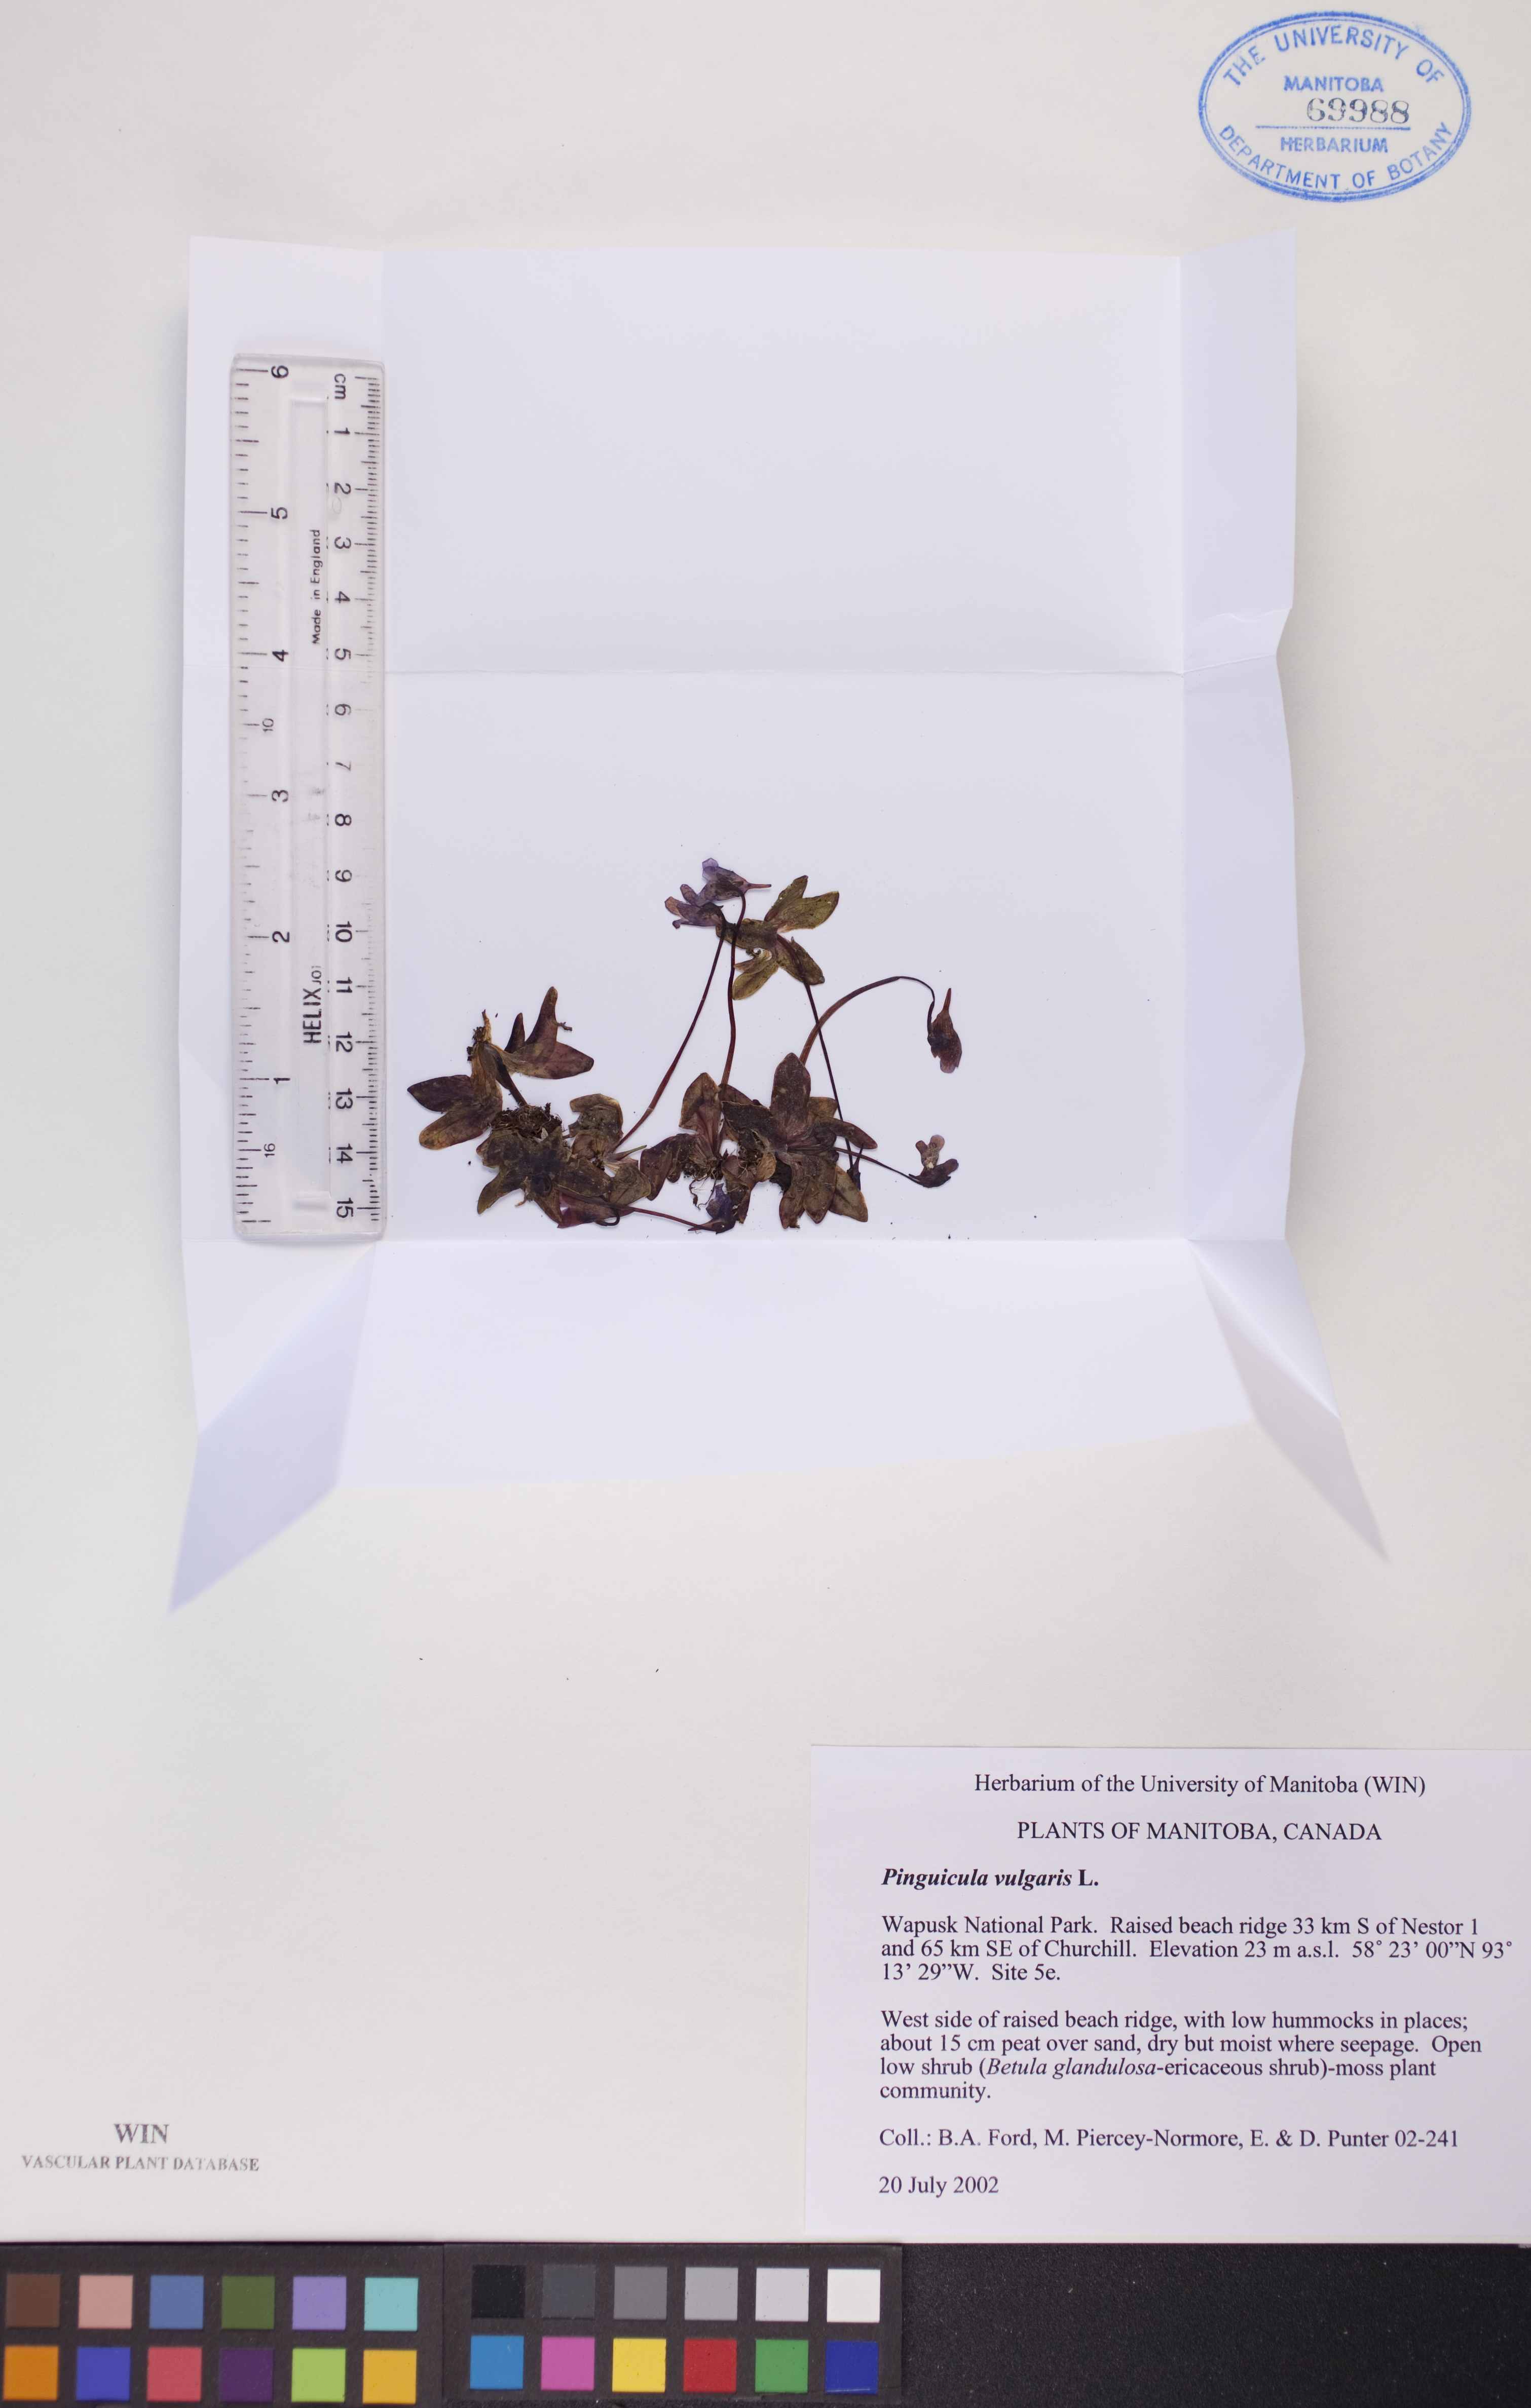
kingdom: Plantae
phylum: Tracheophyta
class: Magnoliopsida
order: Lamiales
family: Lentibulariaceae
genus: Pinguicula
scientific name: Pinguicula vulgaris
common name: Common butterwort
